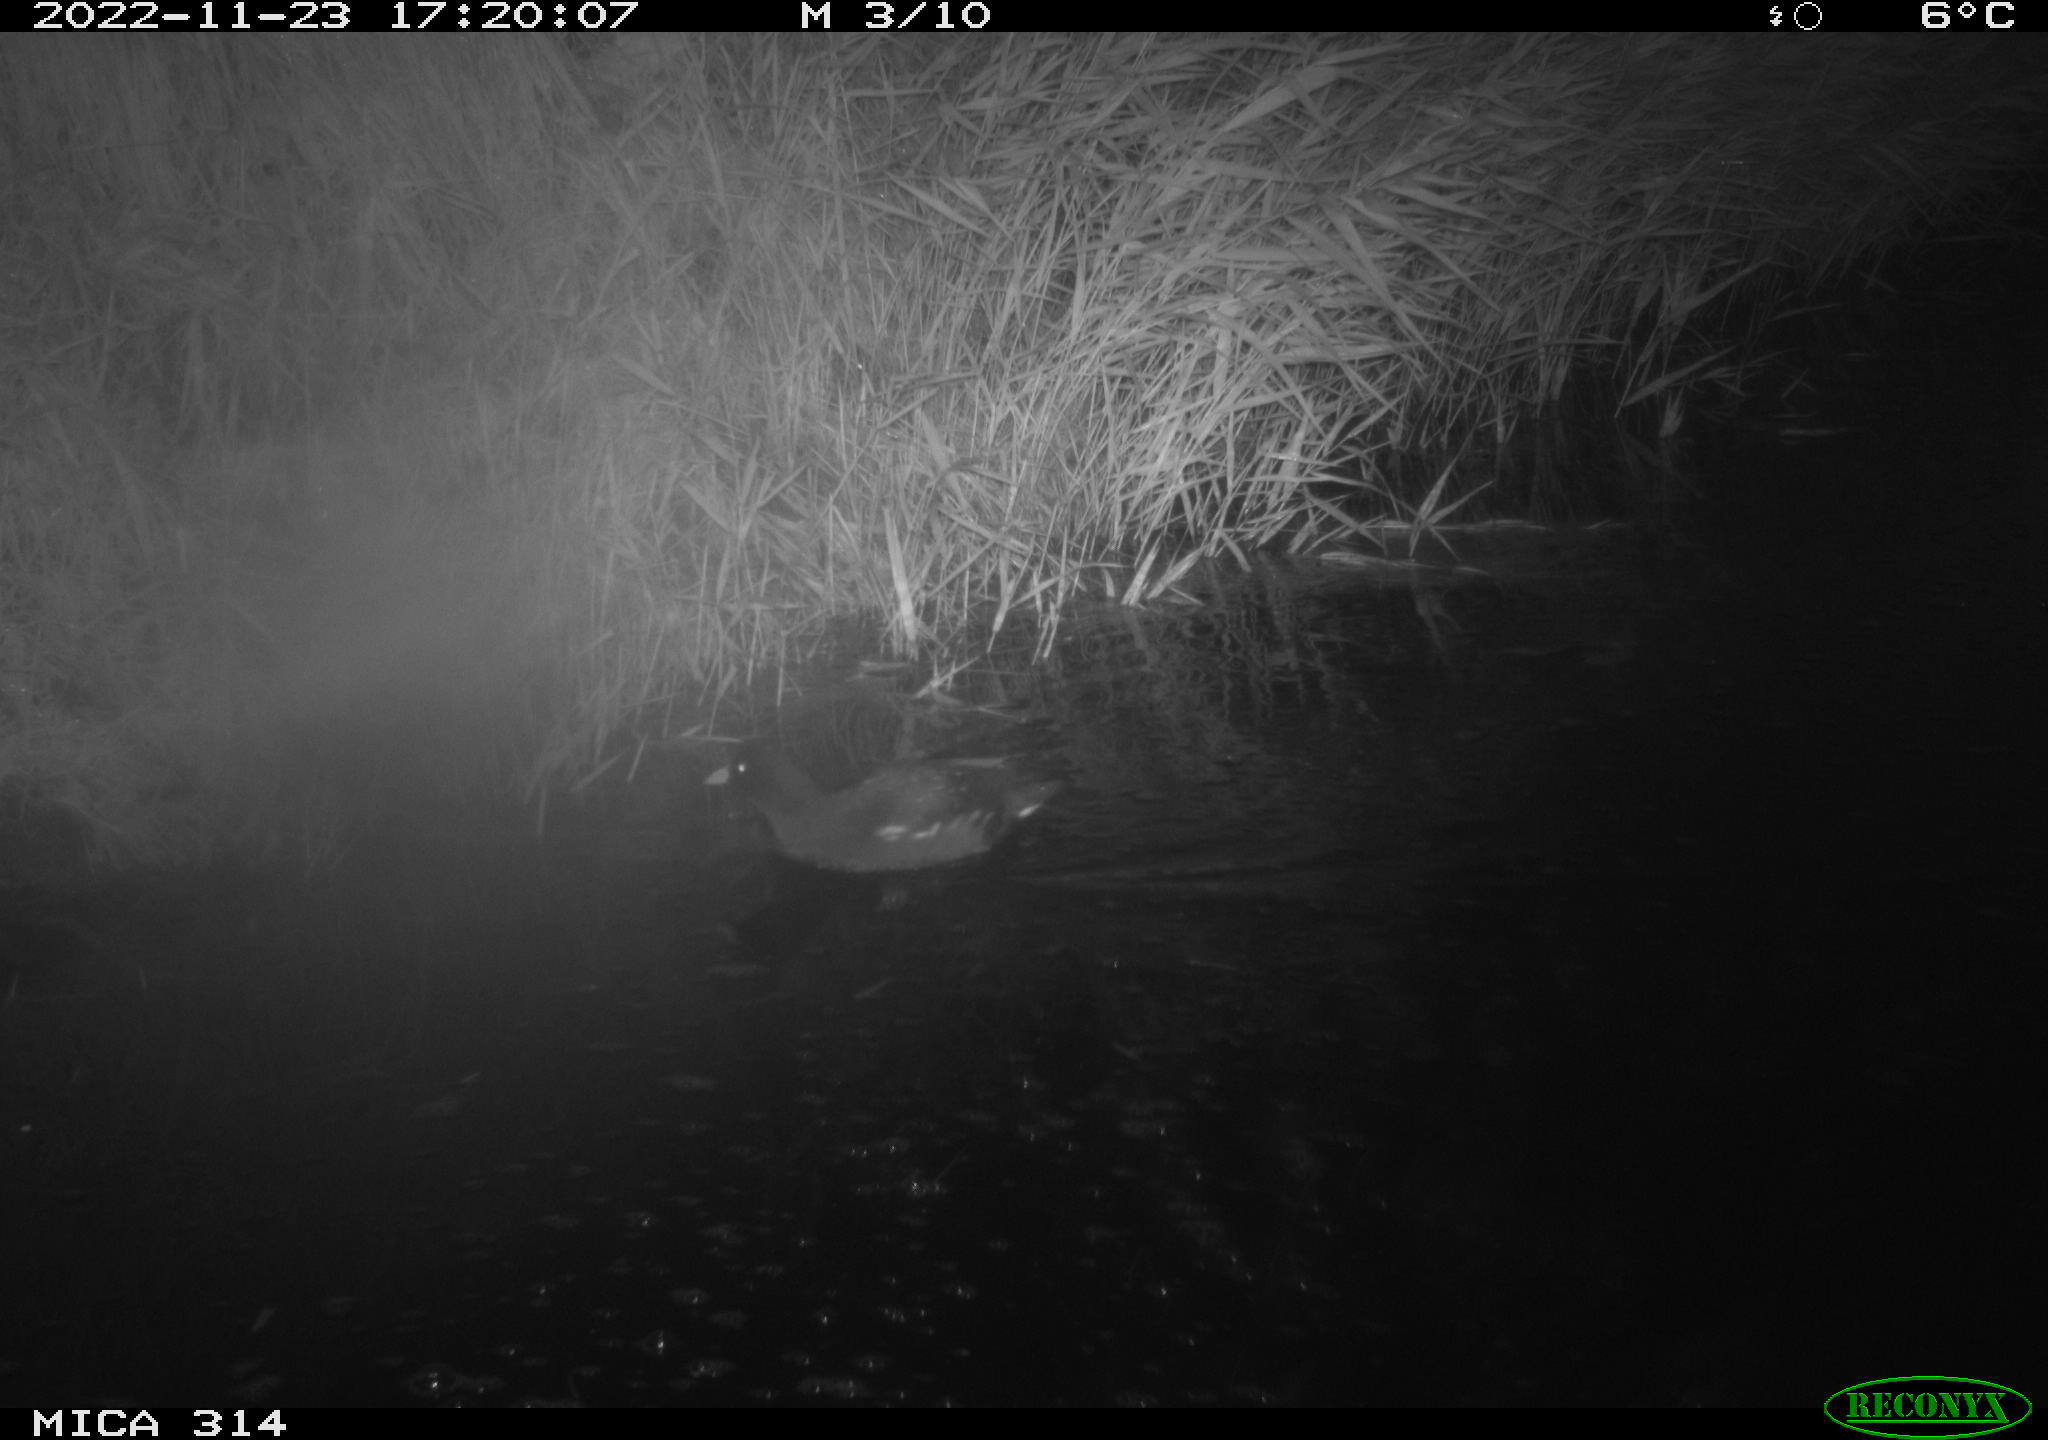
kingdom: Animalia
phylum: Chordata
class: Aves
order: Gruiformes
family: Rallidae
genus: Gallinula
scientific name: Gallinula chloropus
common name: Common moorhen
